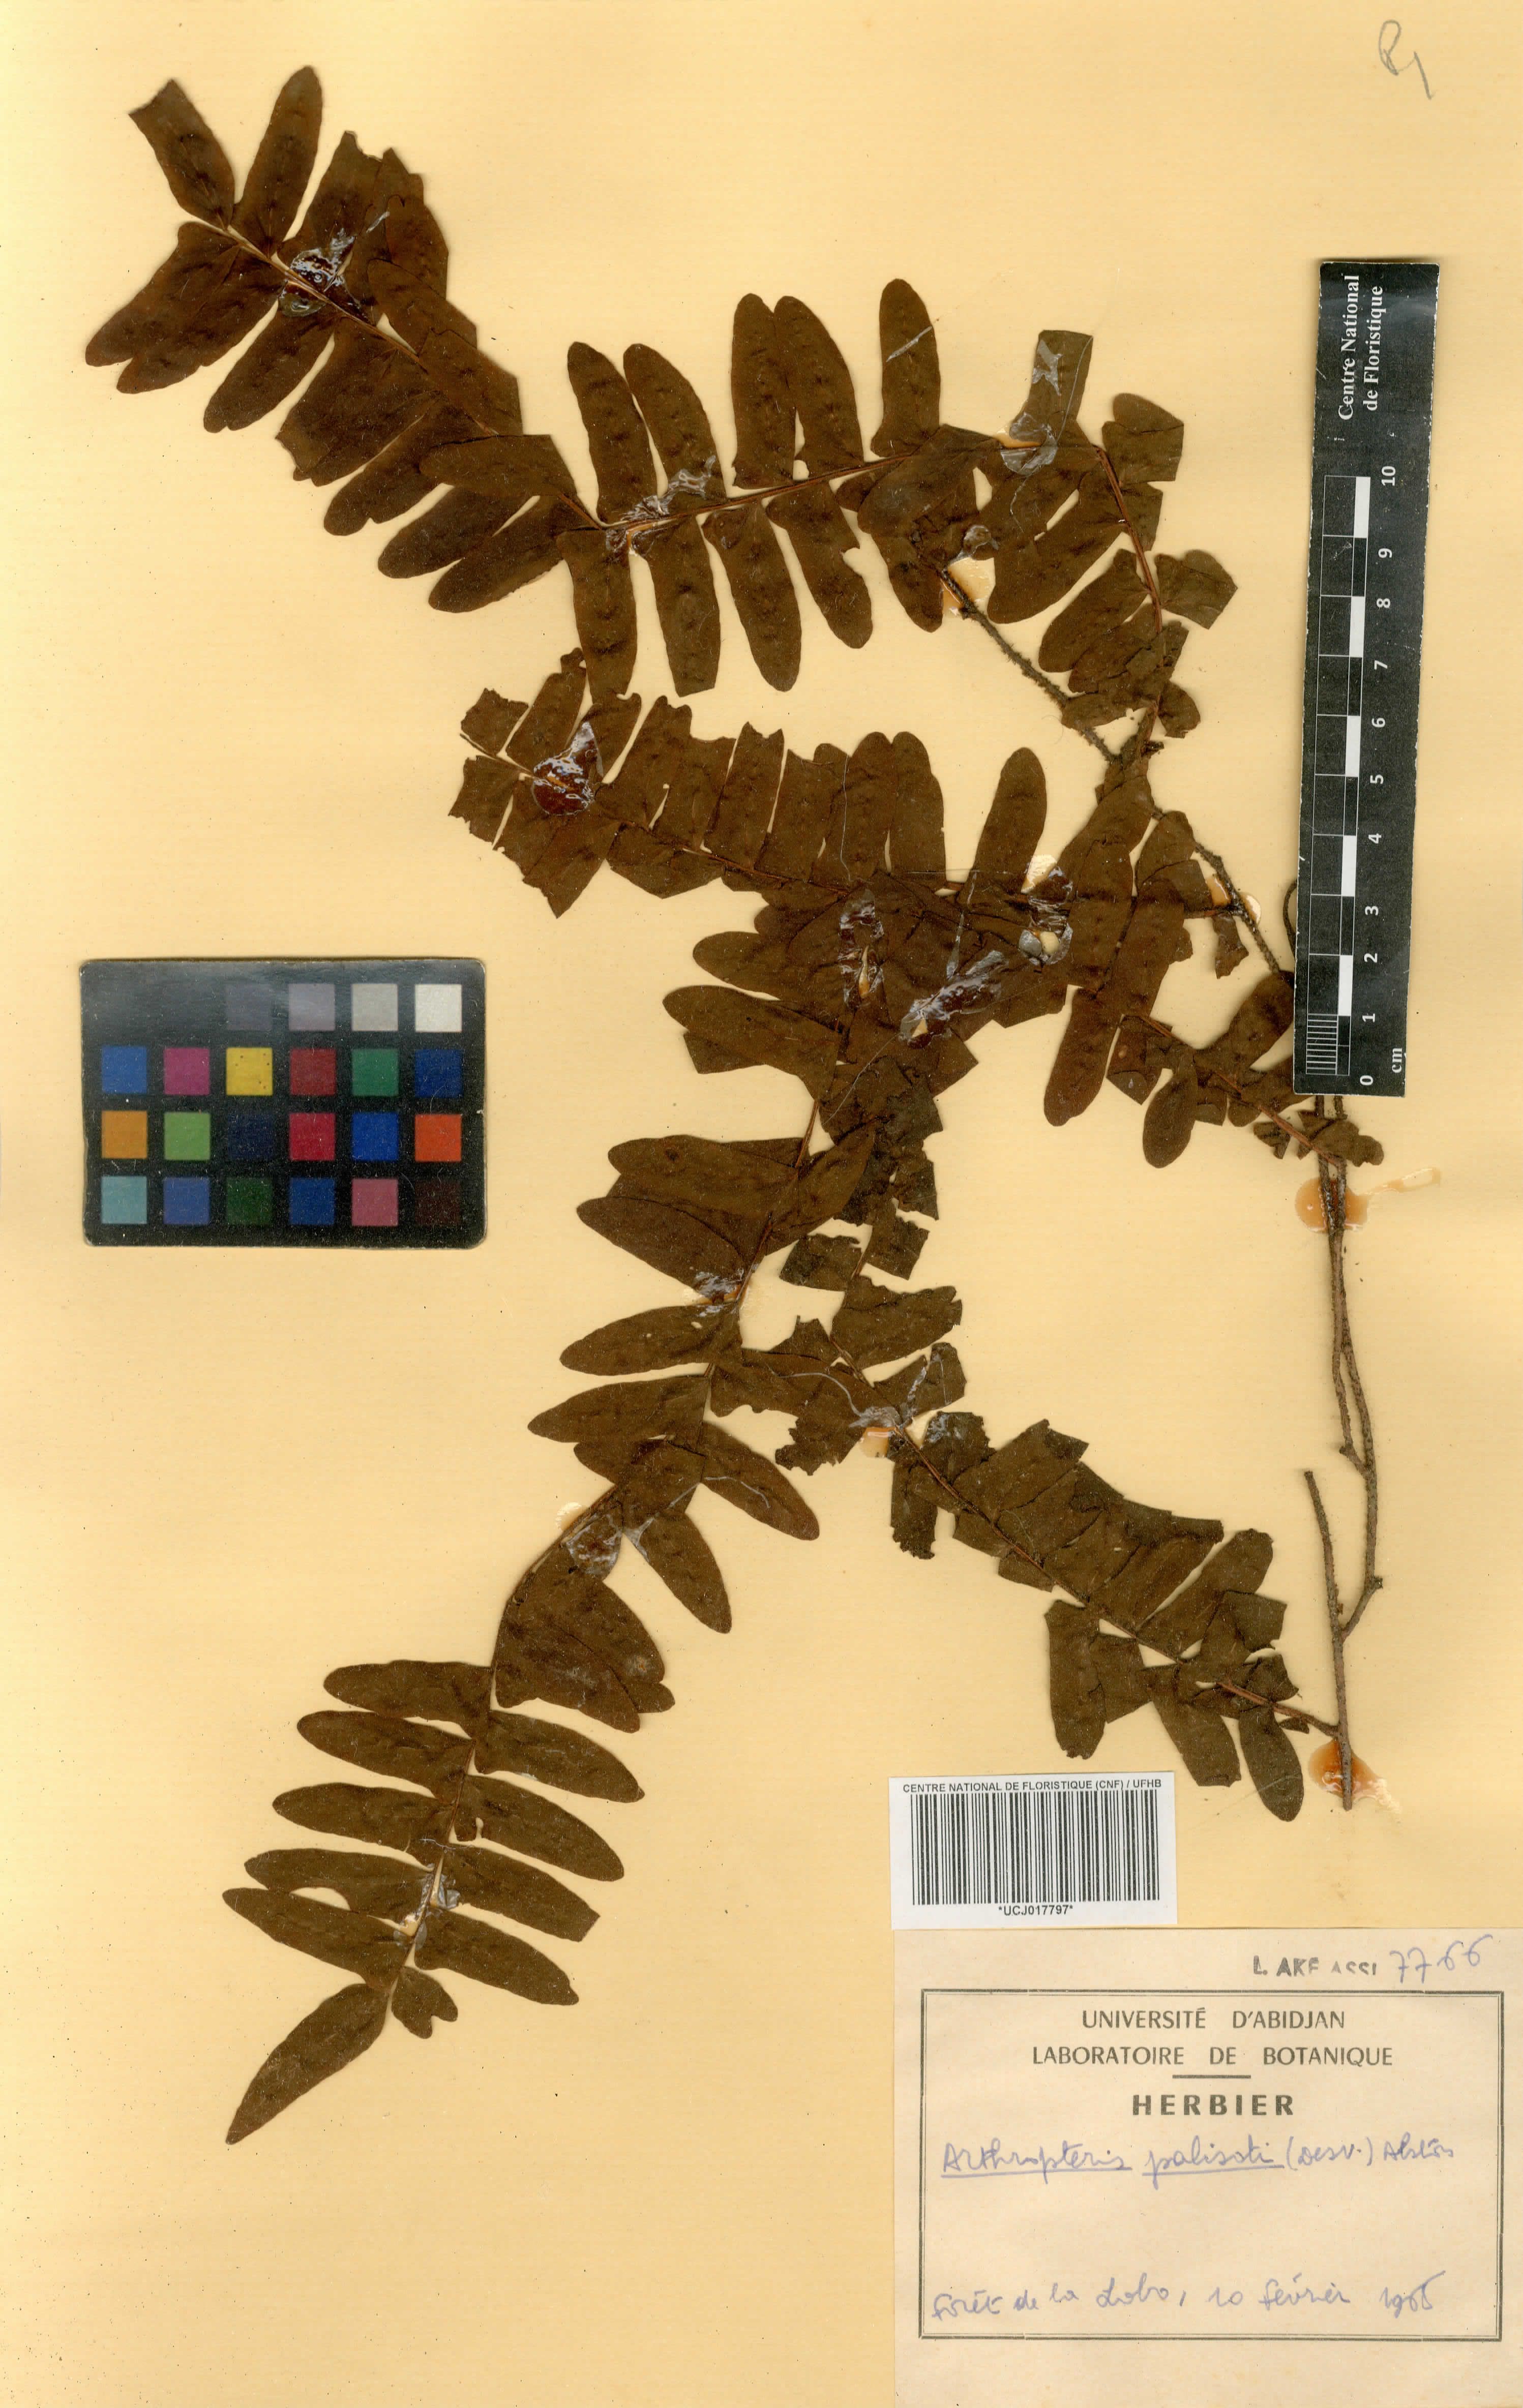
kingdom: Plantae
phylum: Tracheophyta
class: Polypodiopsida
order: Polypodiales
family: Tectariaceae
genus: Arthropteris
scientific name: Arthropteris palisotii
